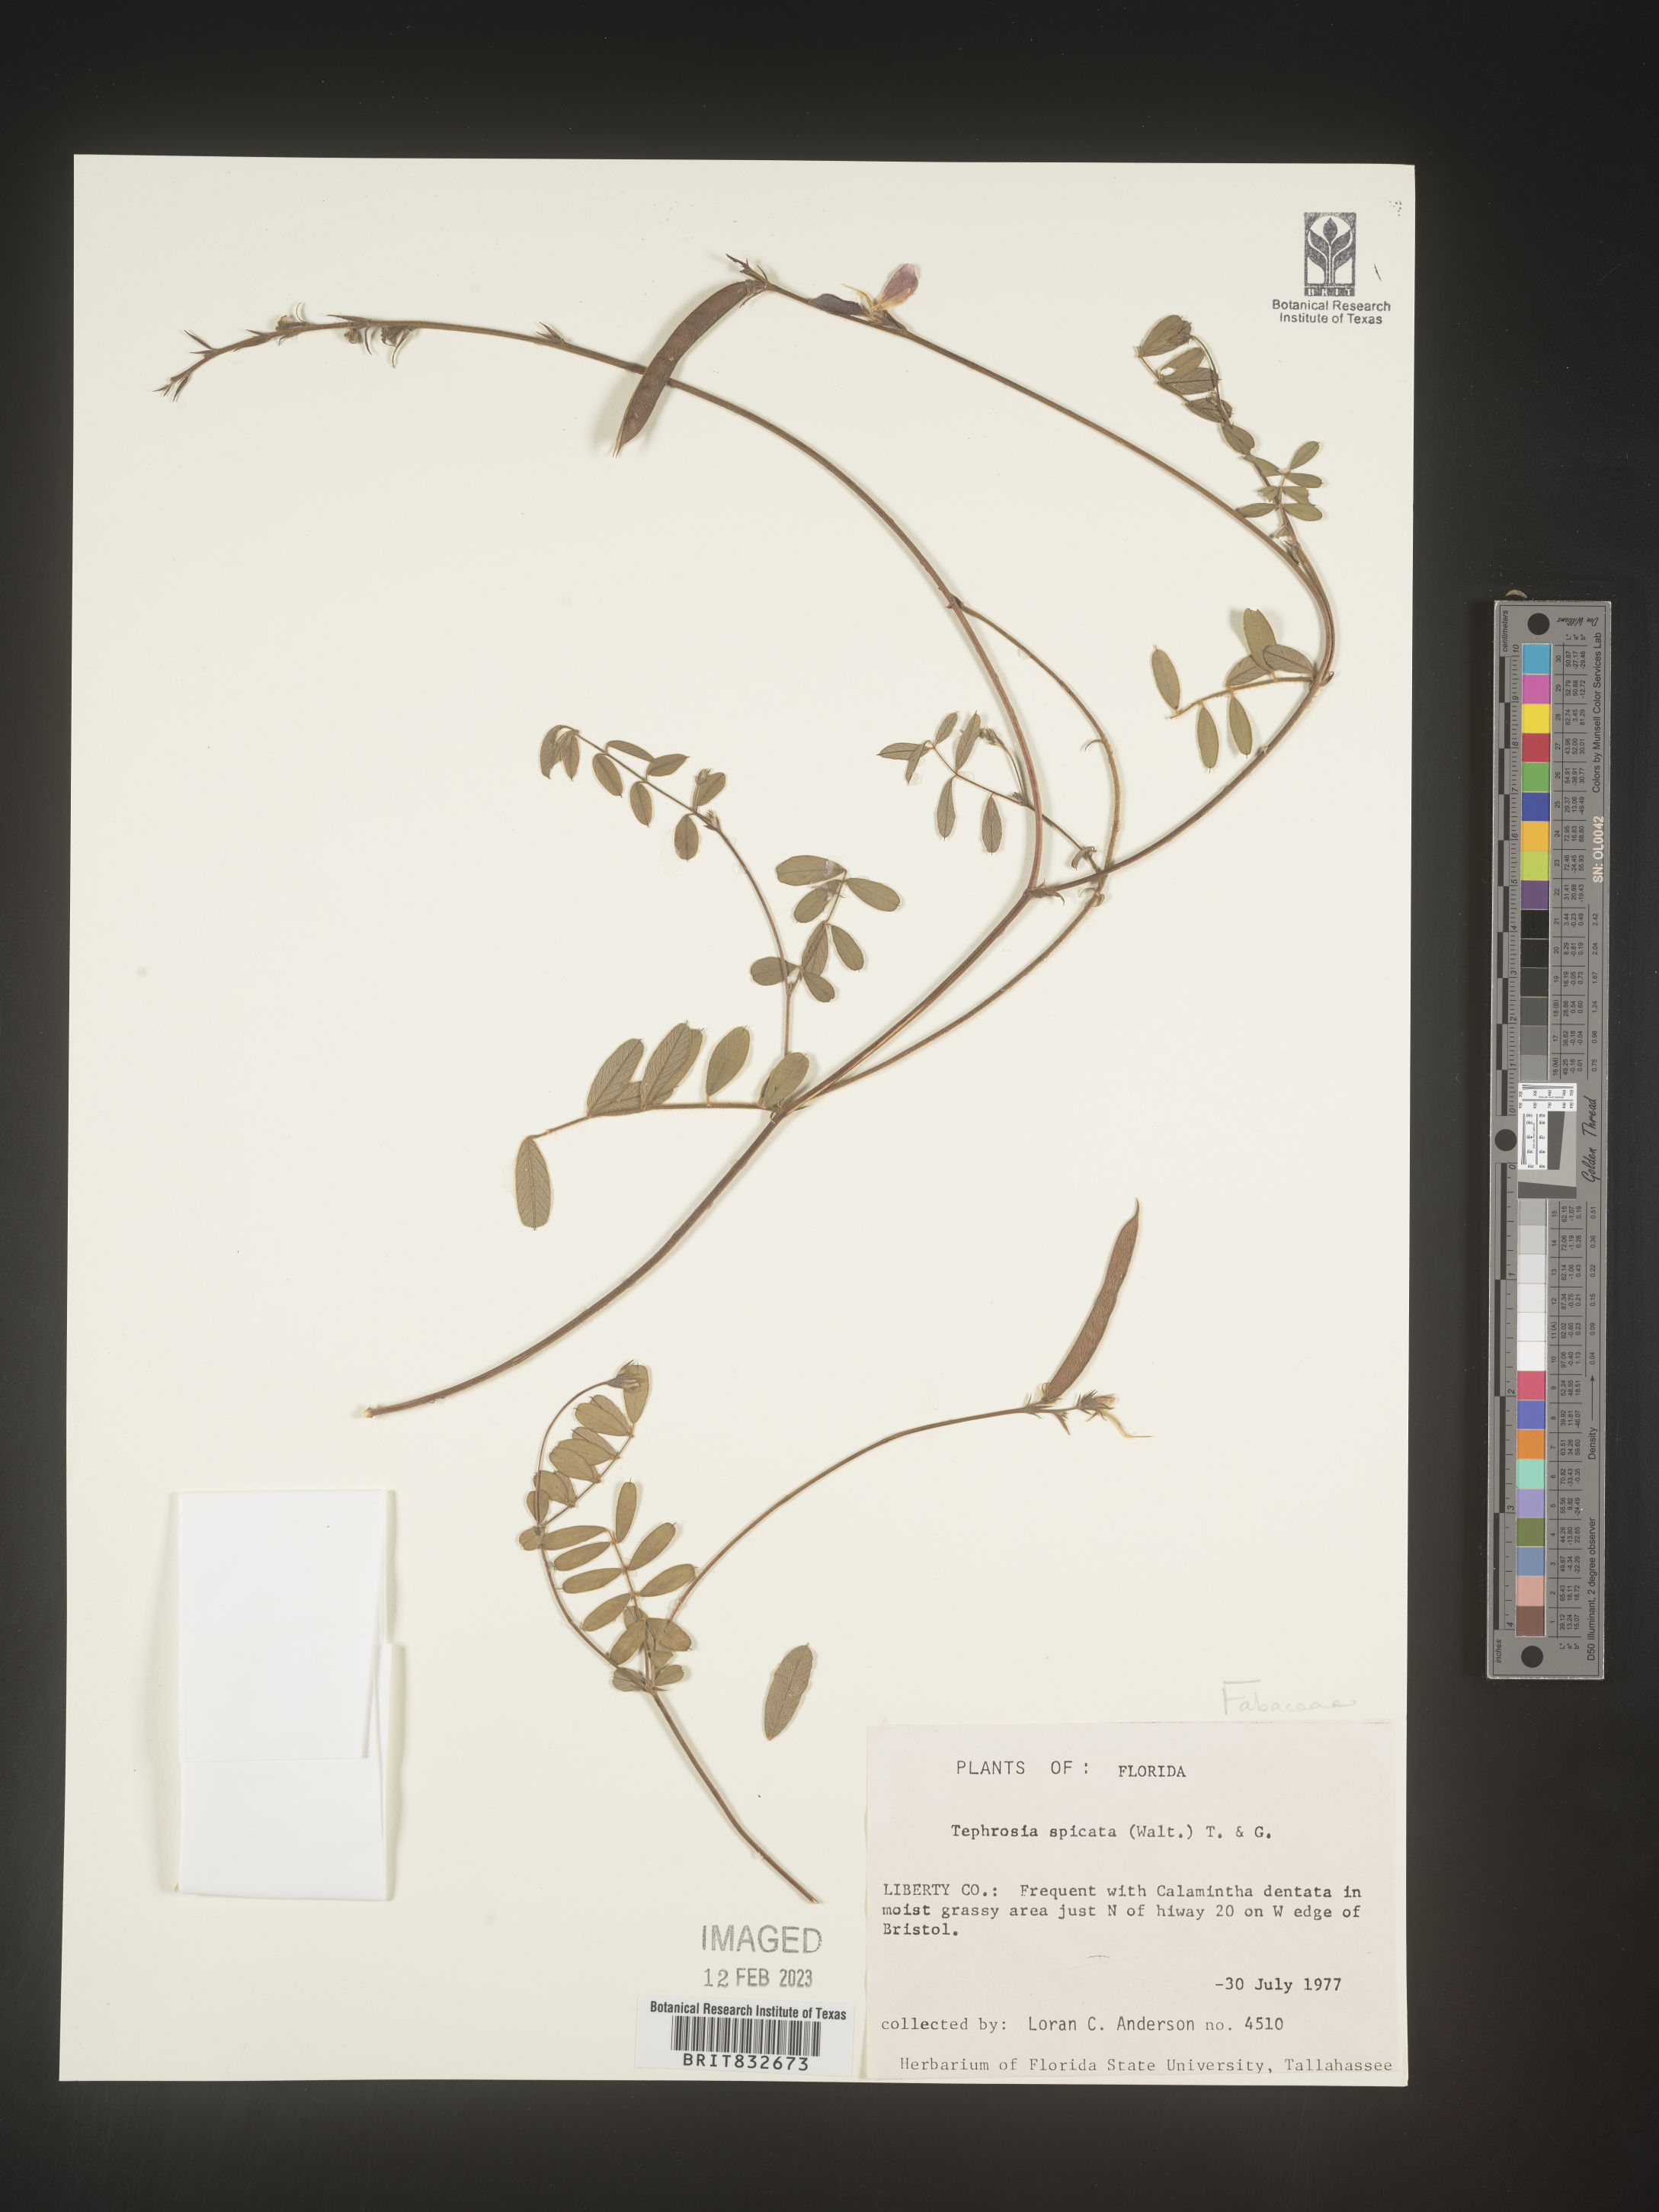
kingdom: Plantae
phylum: Tracheophyta
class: Magnoliopsida
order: Fabales
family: Fabaceae
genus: Tephrosia
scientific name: Tephrosia spicata
